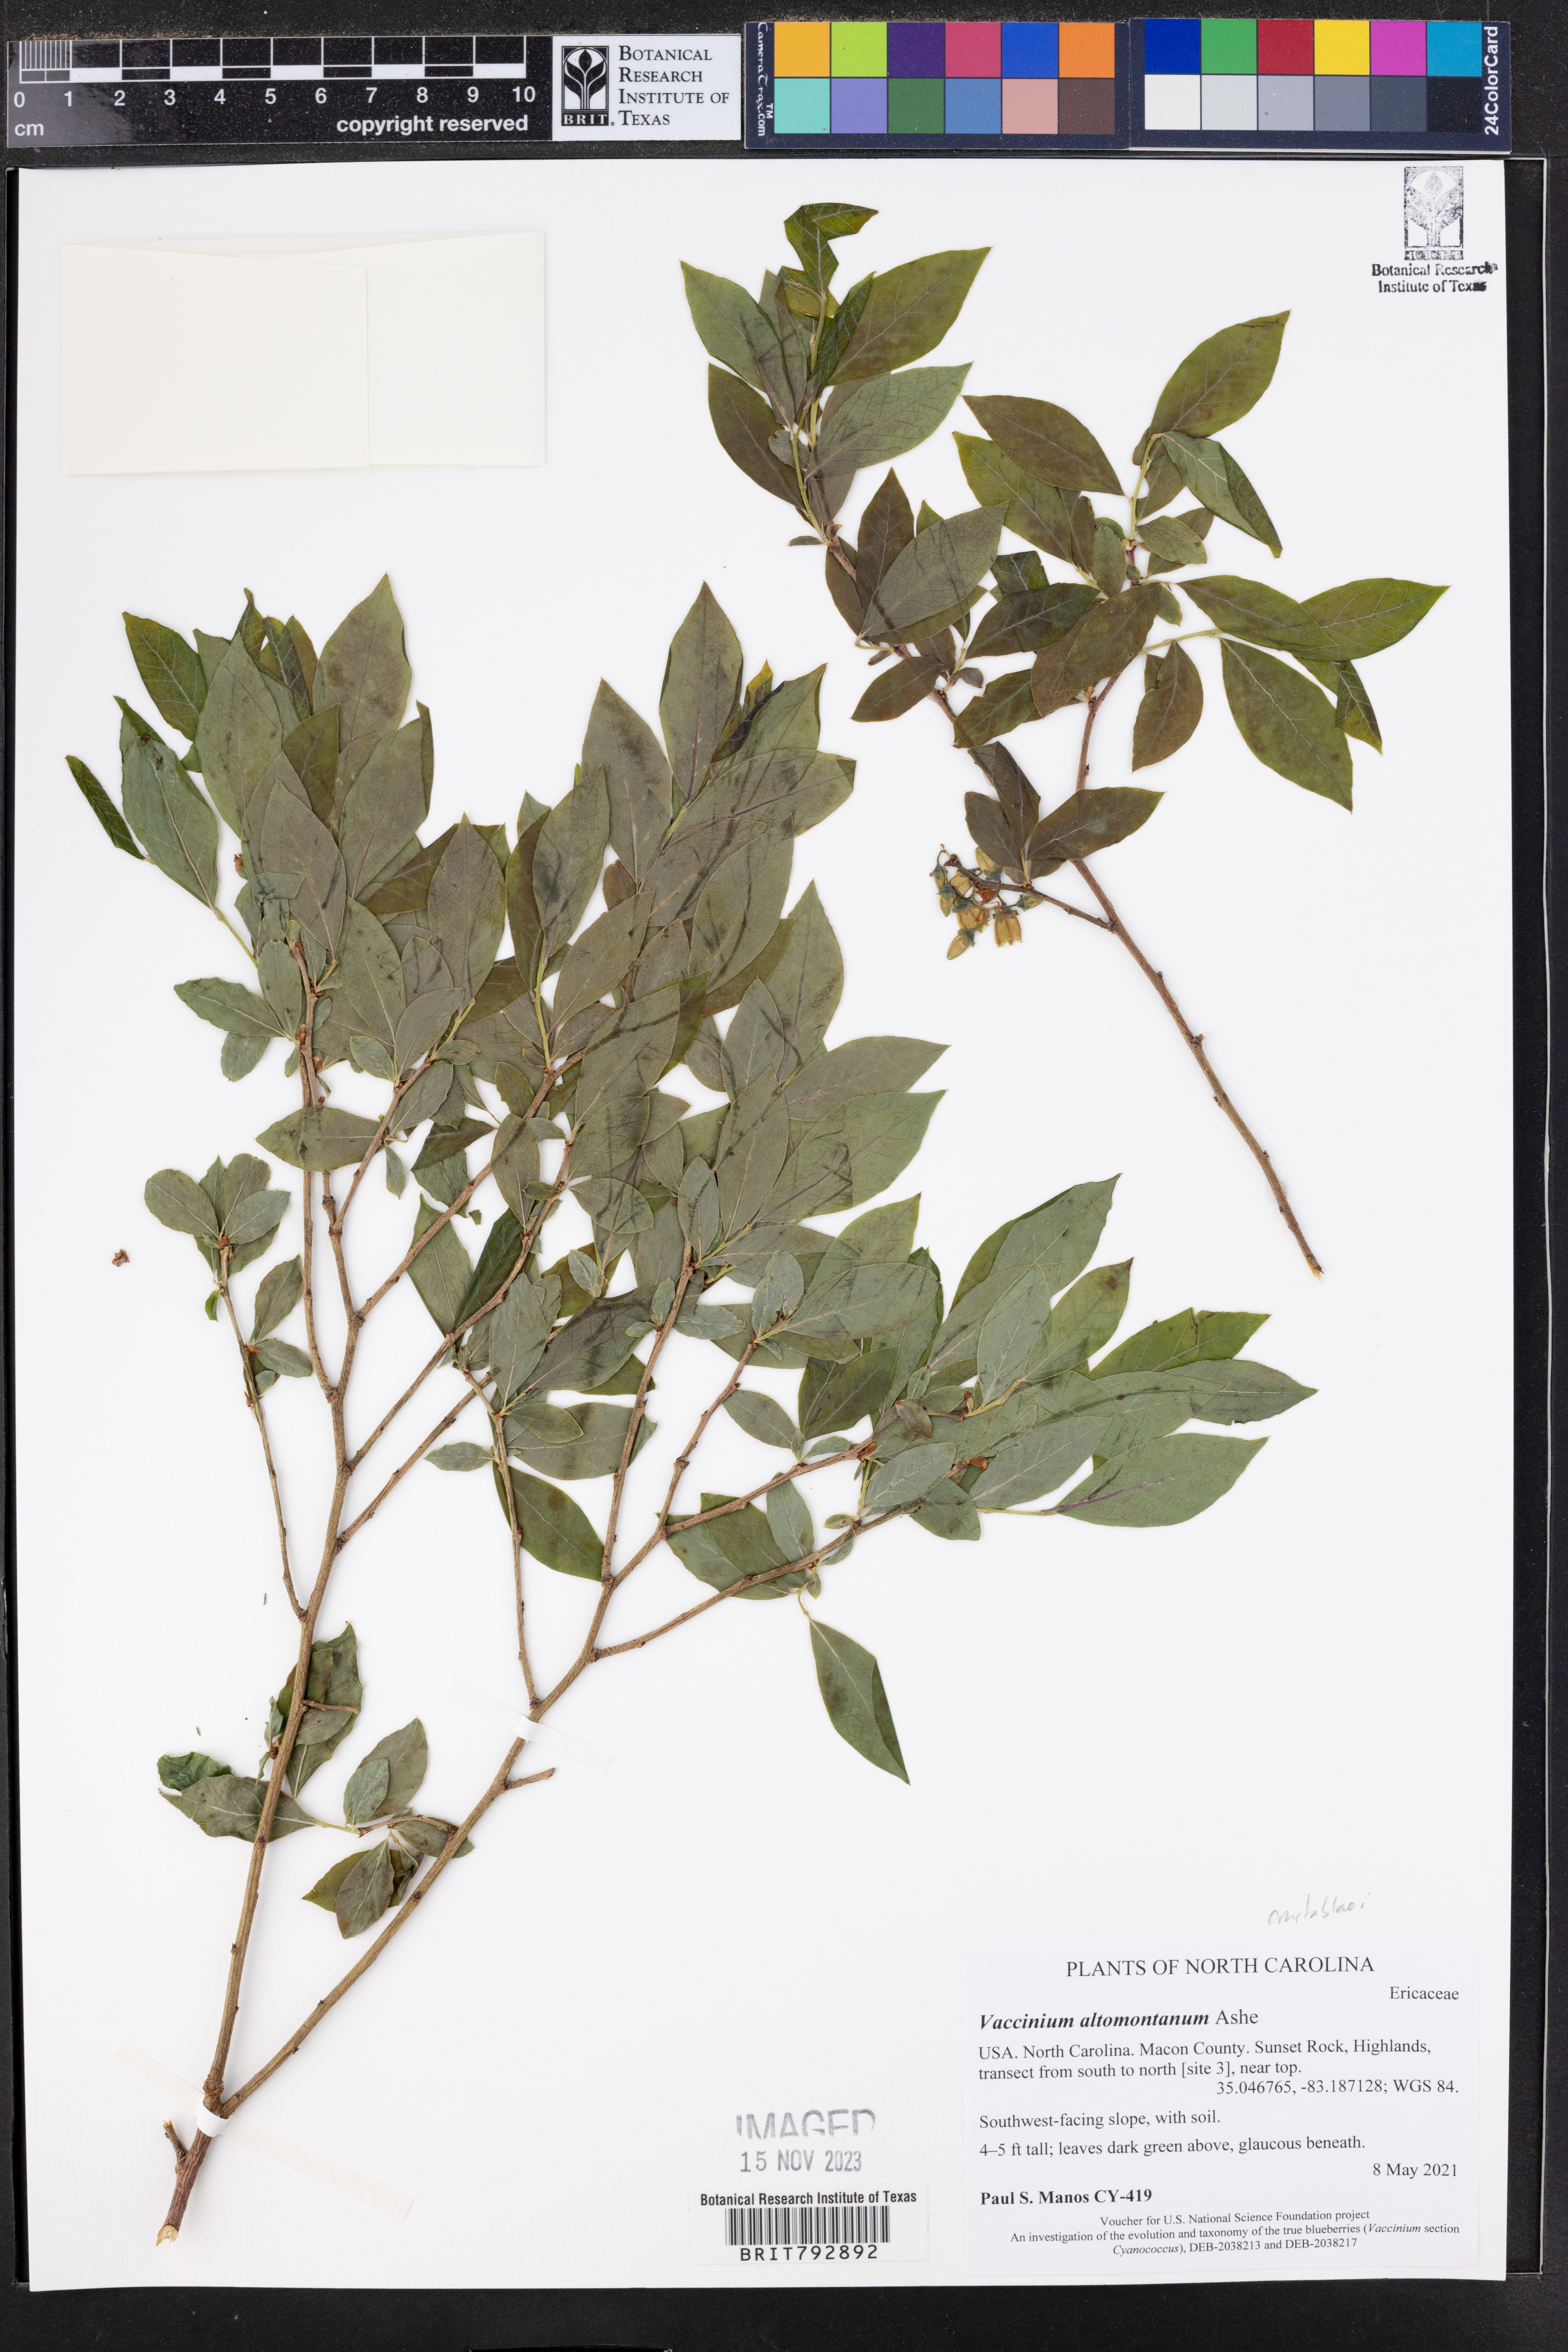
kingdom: Plantae
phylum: Tracheophyta
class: Magnoliopsida
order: Ericales
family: Ericaceae
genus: Vaccinium
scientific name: Vaccinium pallidum
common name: Blue ridge blueberry
